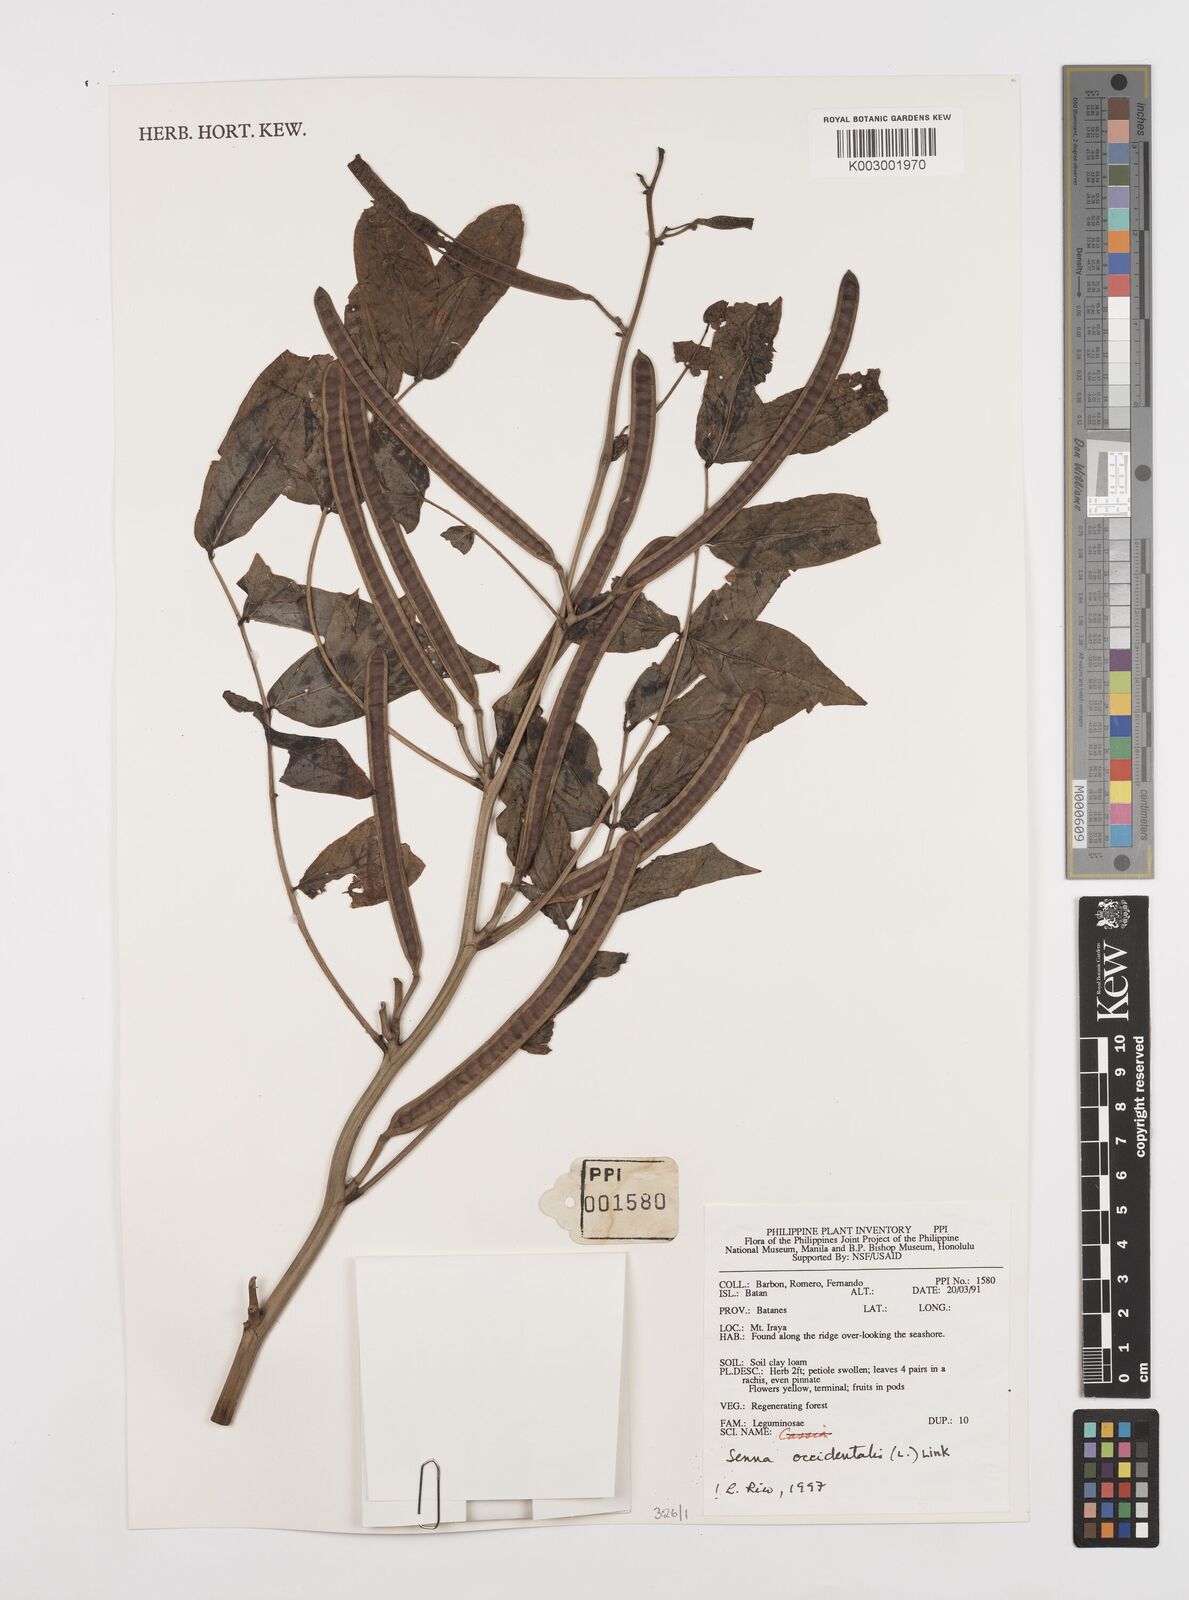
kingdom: Plantae
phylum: Tracheophyta
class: Magnoliopsida
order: Fabales
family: Fabaceae
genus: Senna
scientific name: Senna occidentalis
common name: Septicweed
